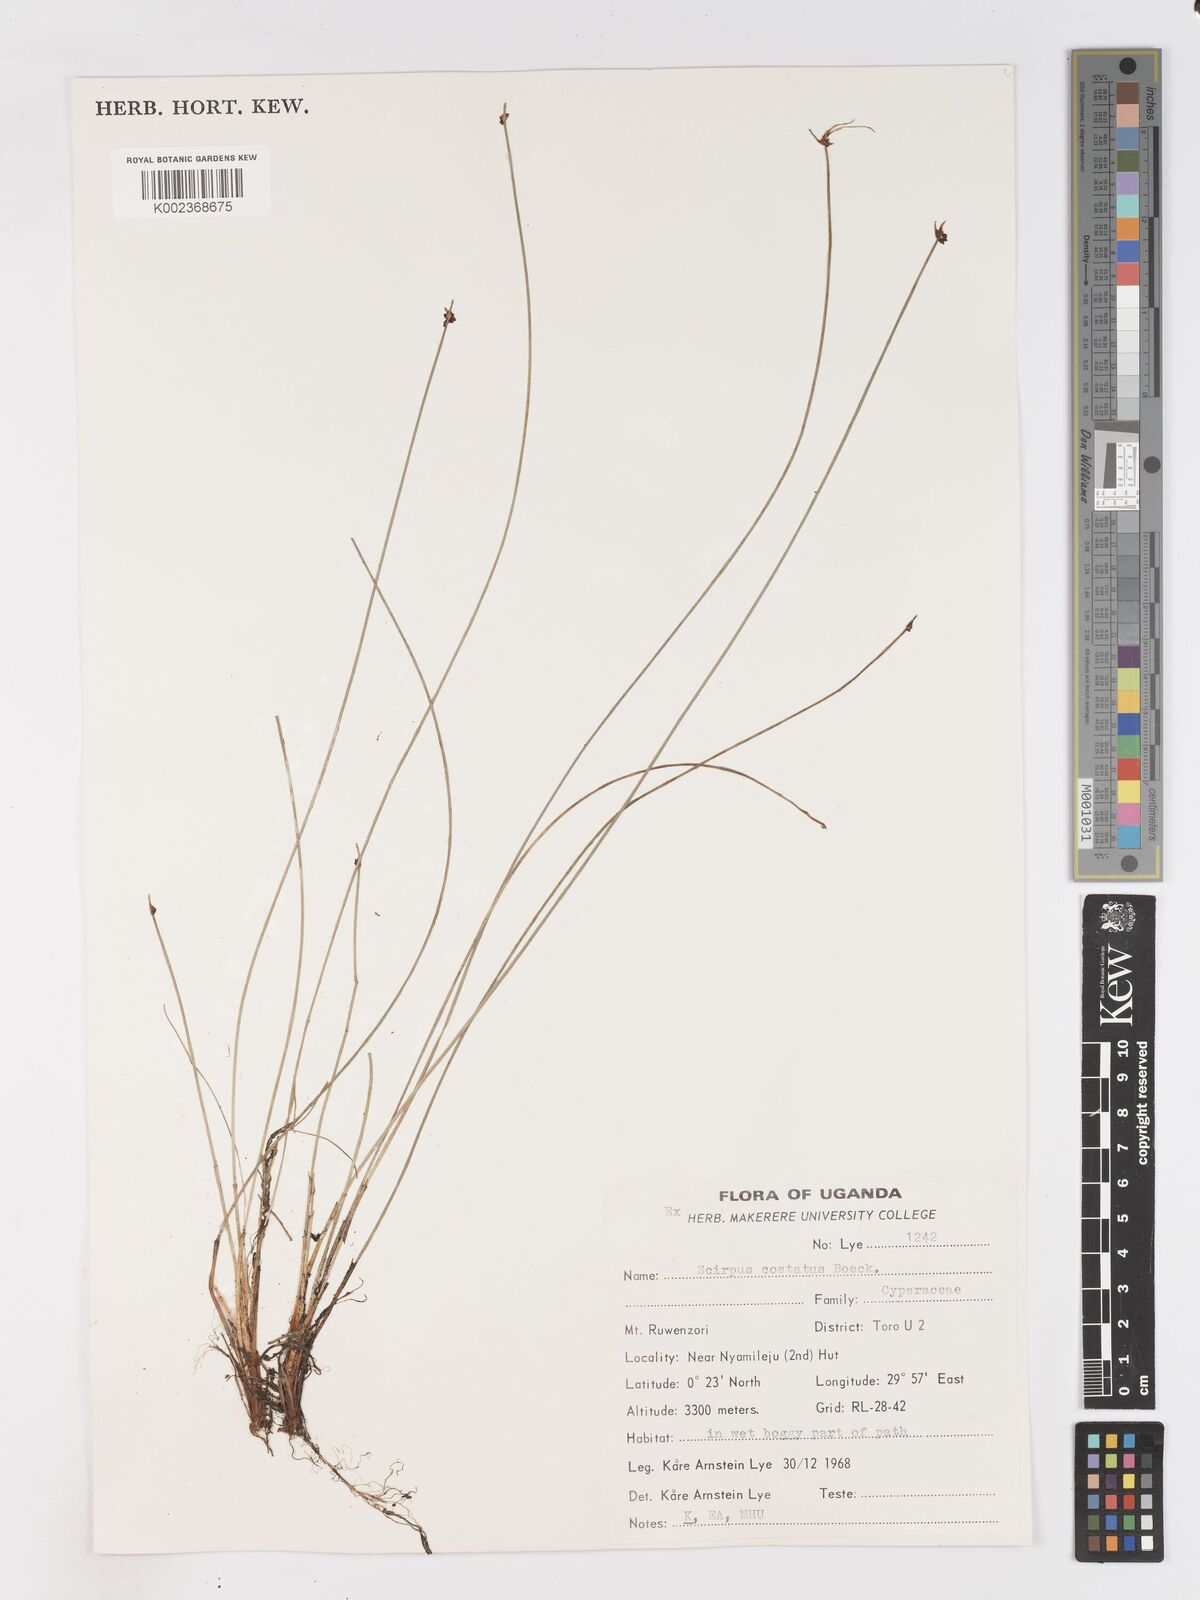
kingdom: Plantae
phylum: Tracheophyta
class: Liliopsida
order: Poales
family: Cyperaceae
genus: Isolepis
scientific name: Isolepis costata
